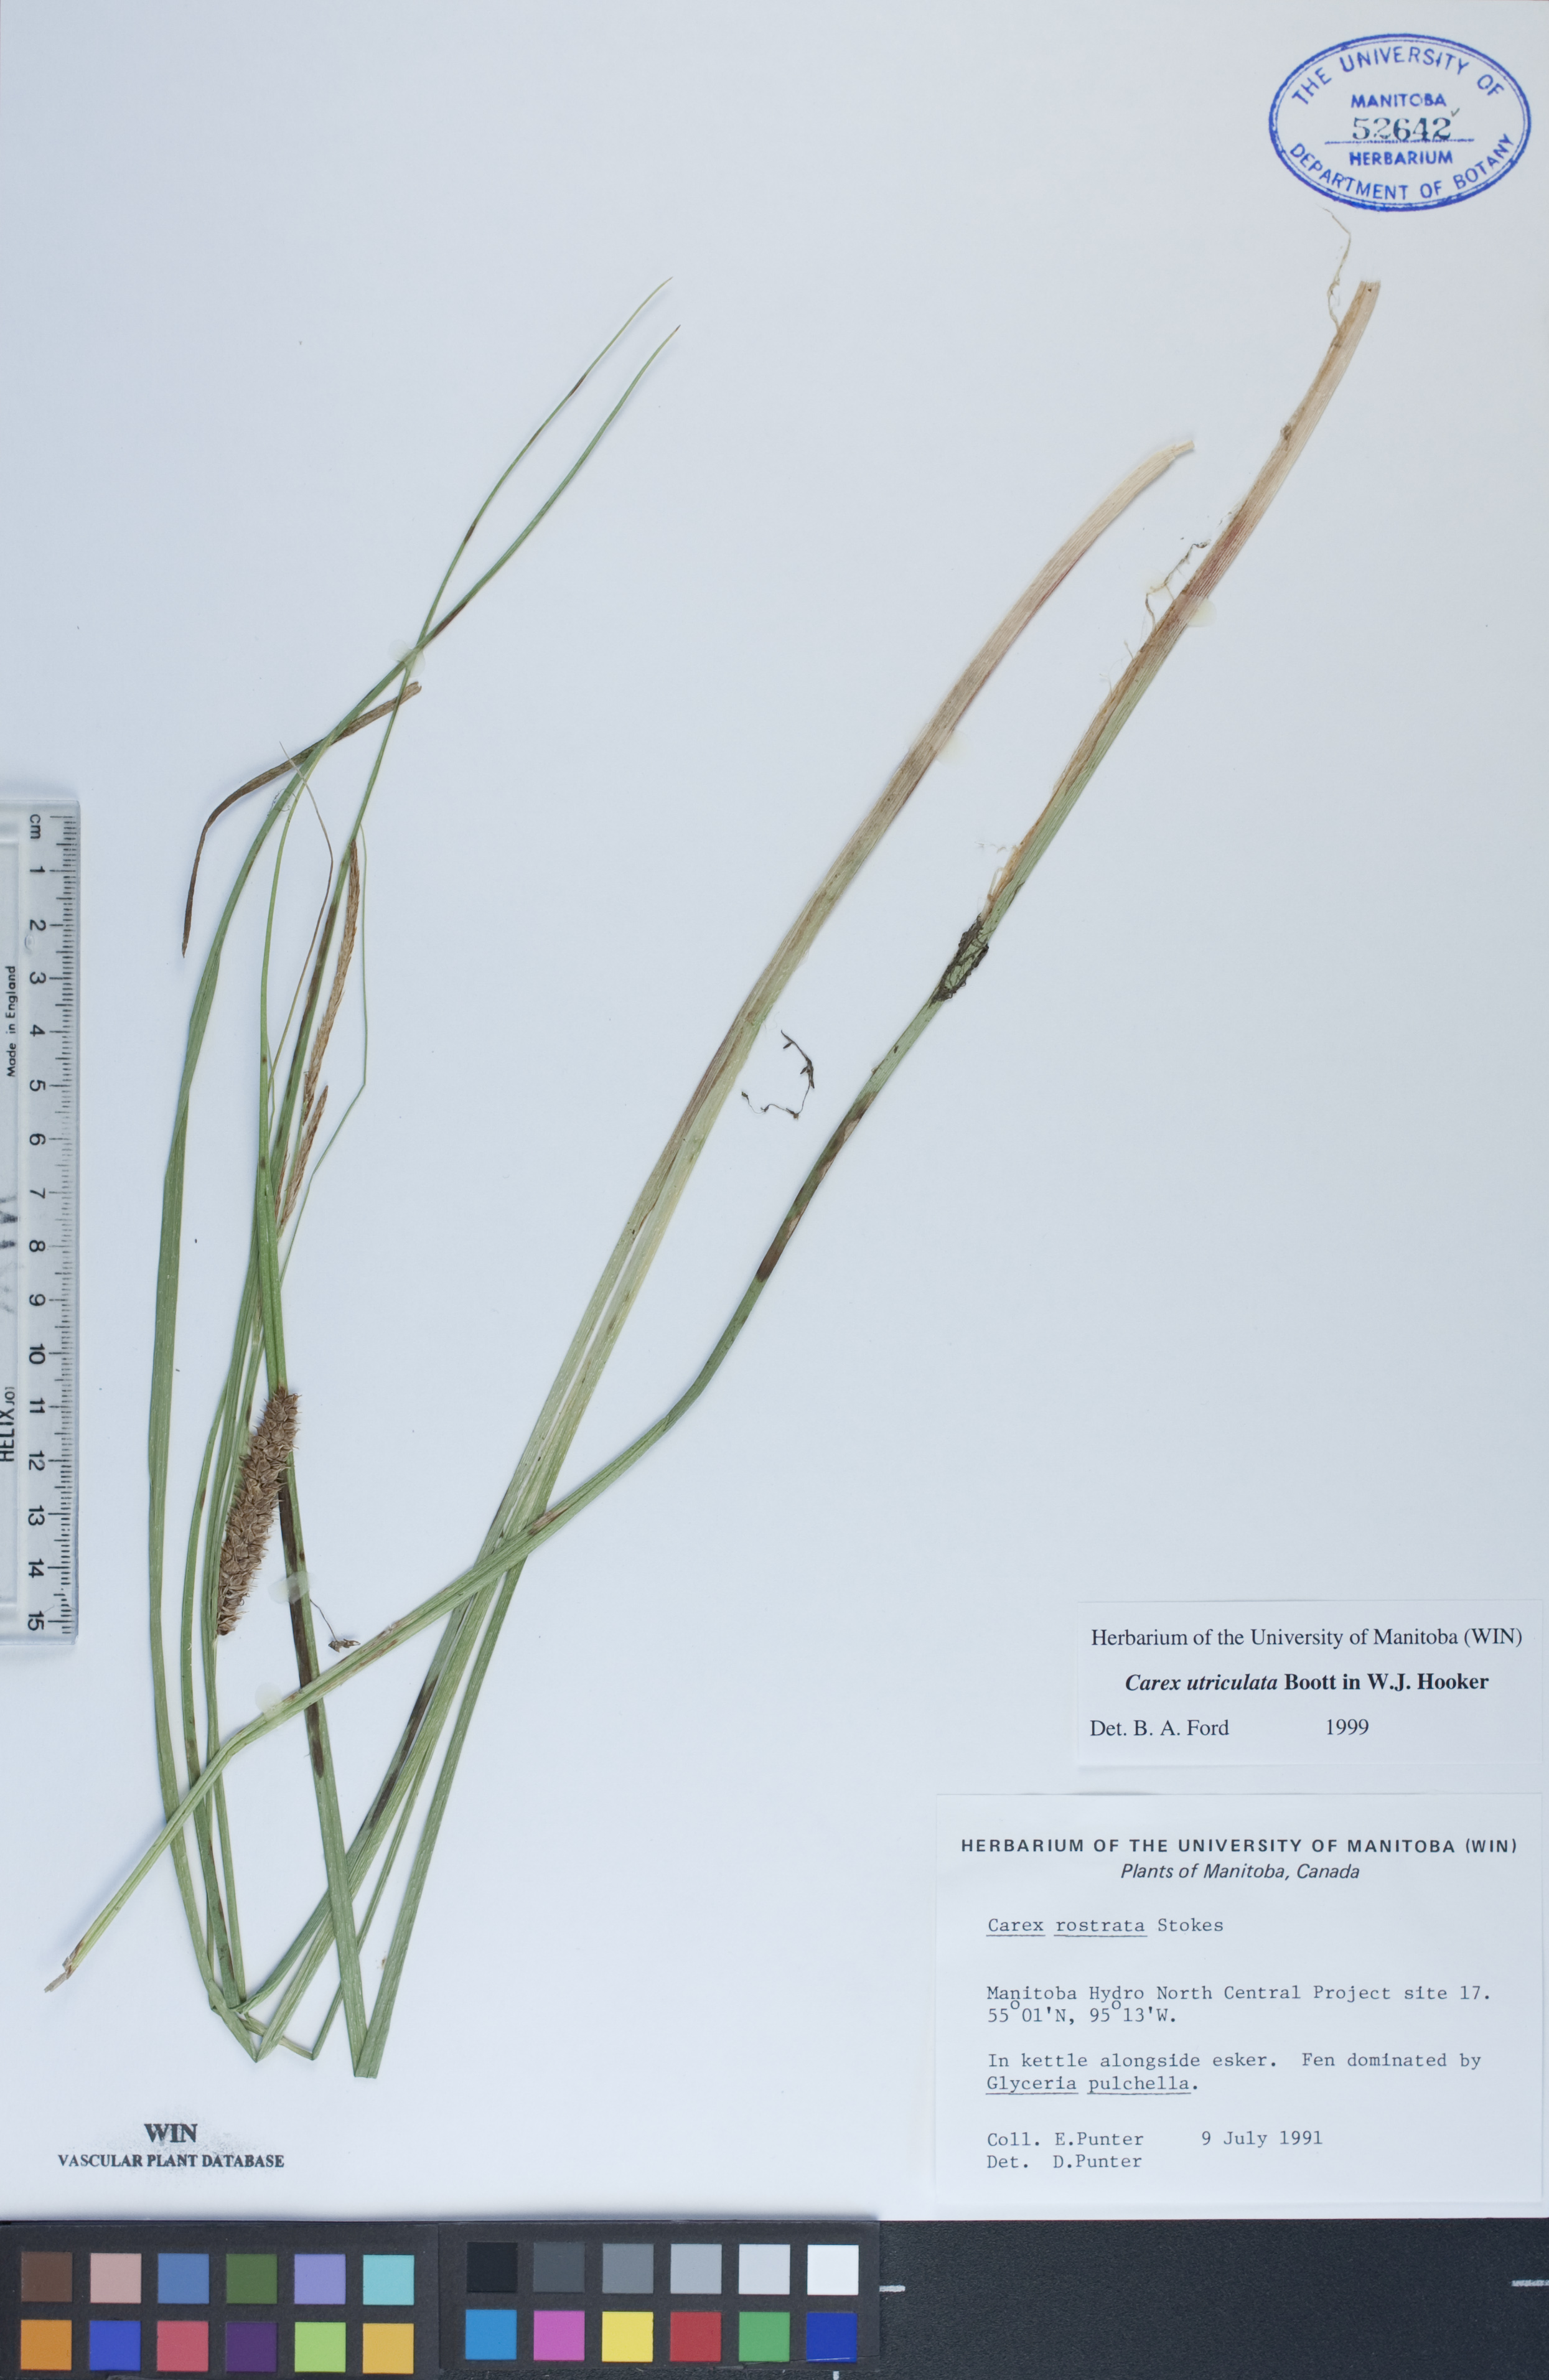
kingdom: Plantae
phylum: Tracheophyta
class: Liliopsida
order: Poales
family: Cyperaceae
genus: Carex
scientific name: Carex utriculata
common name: Beaked sedge
